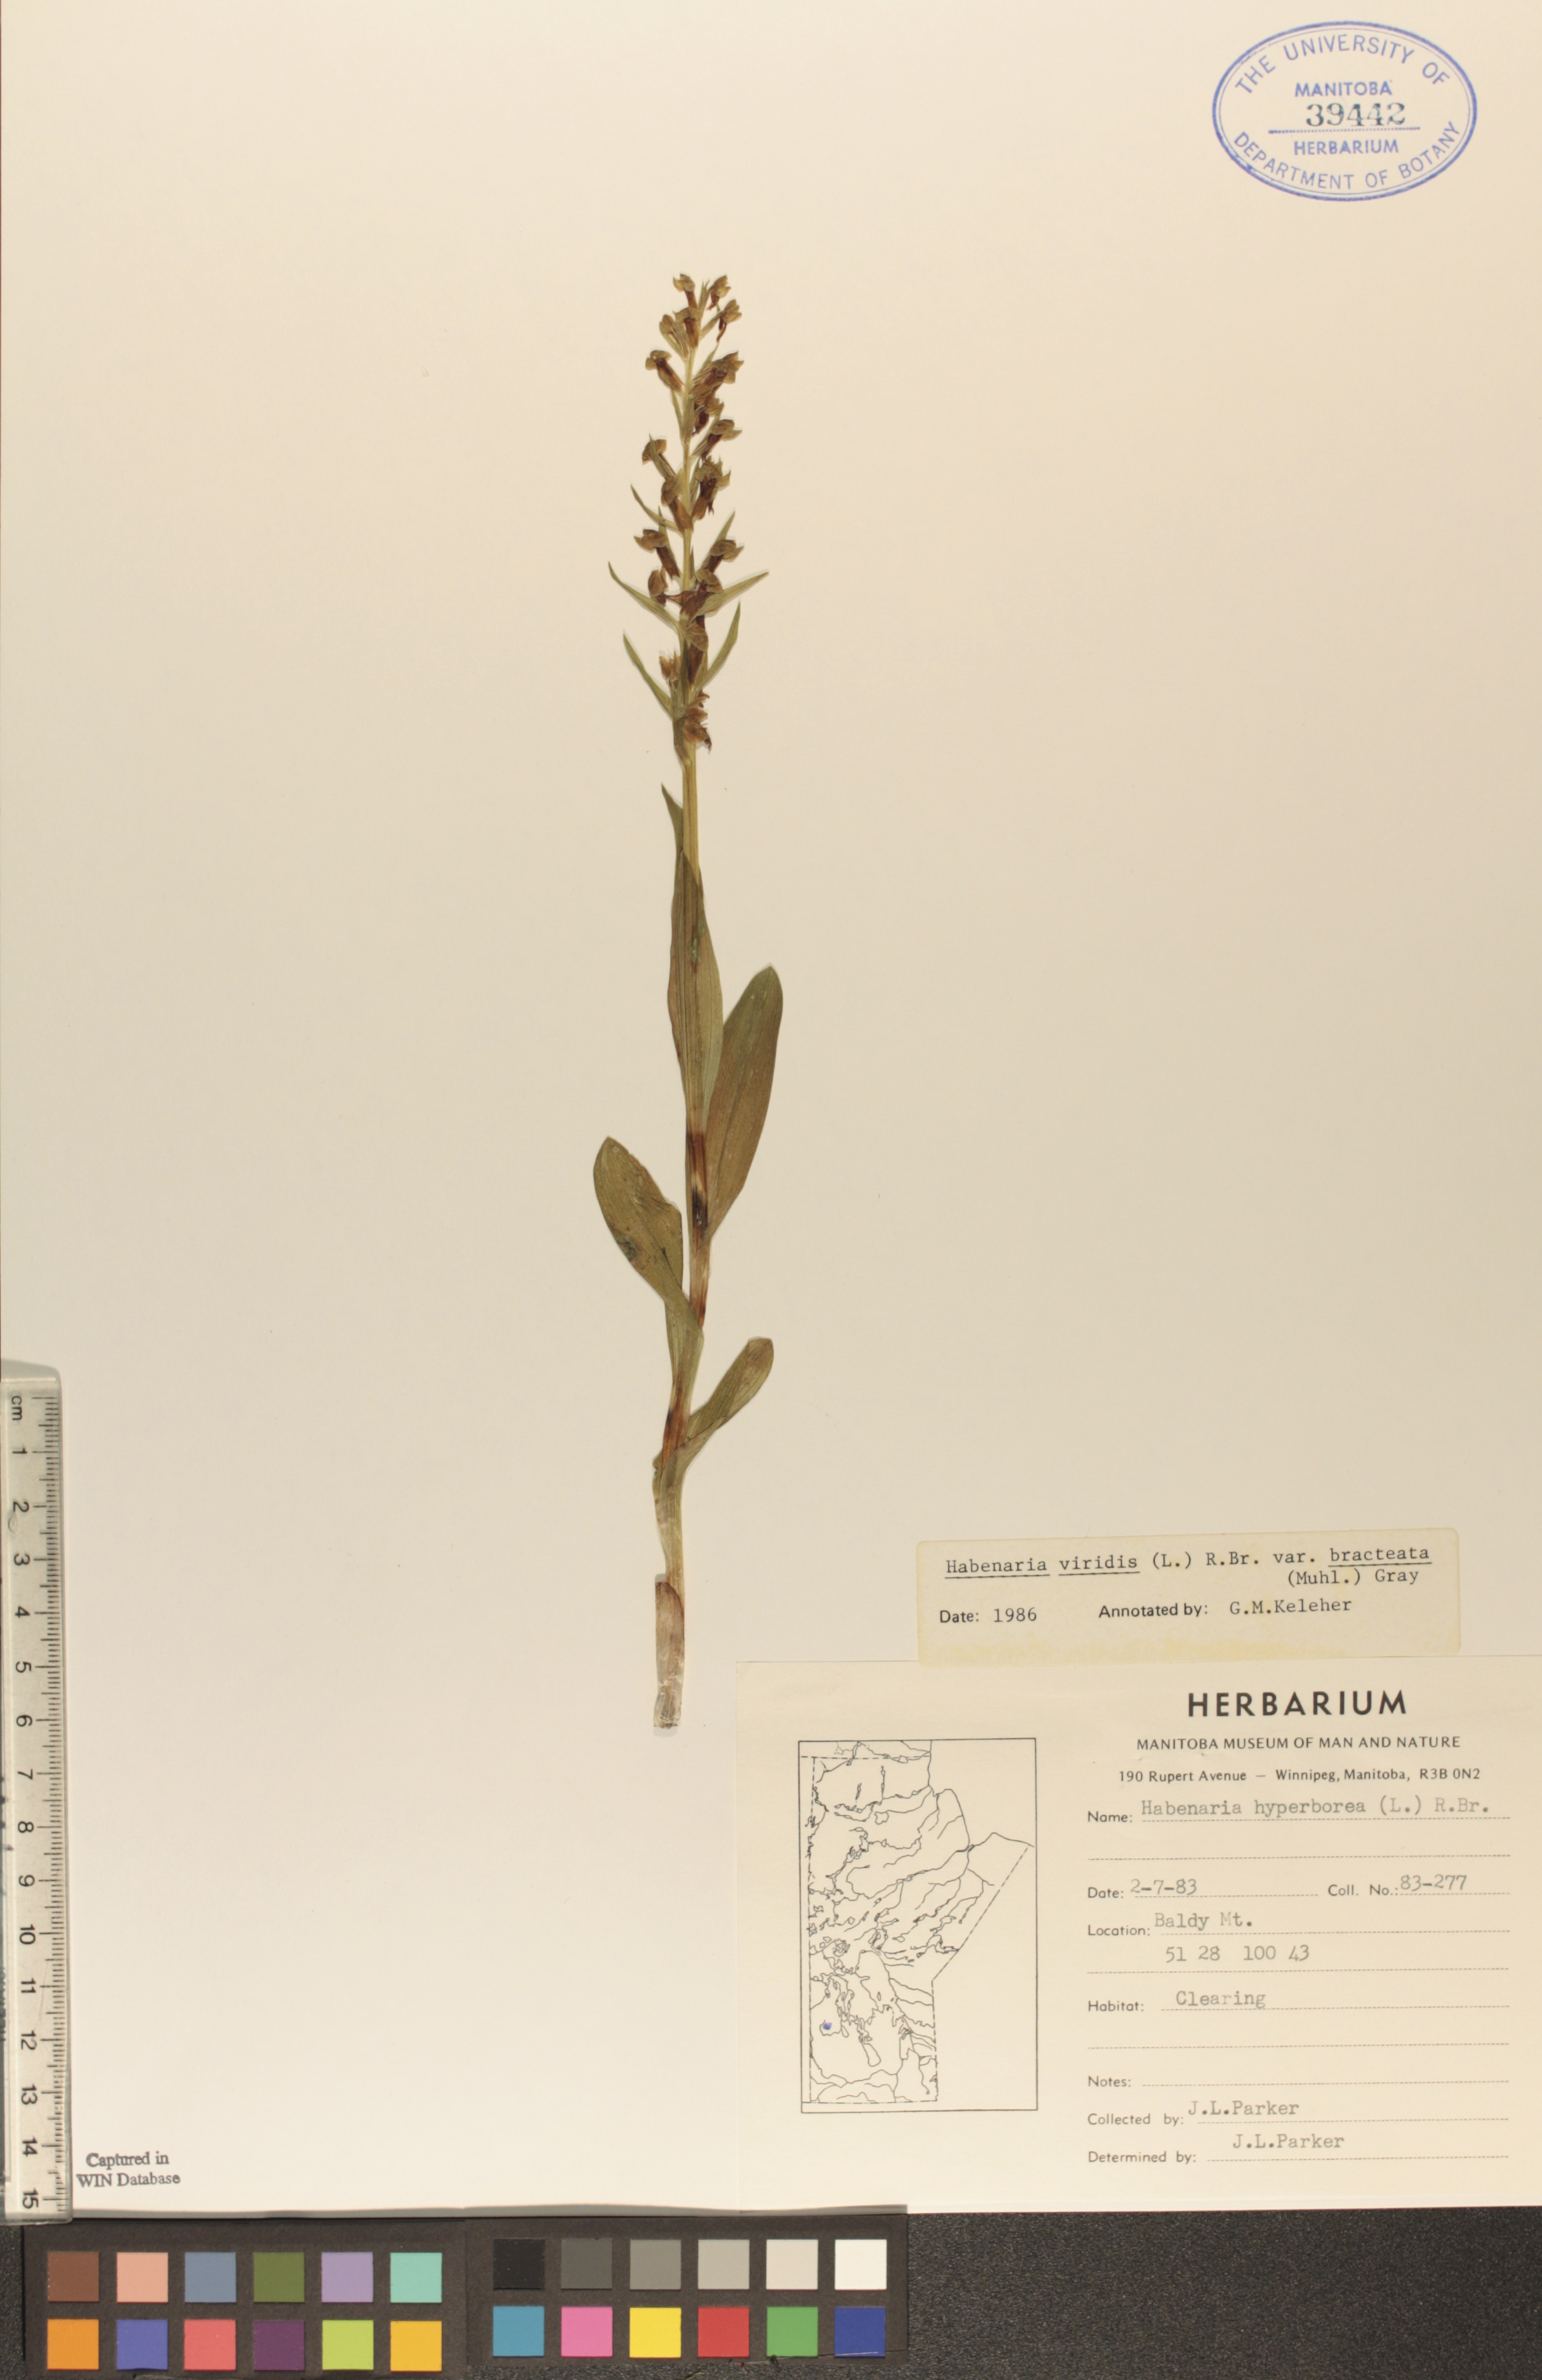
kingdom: Plantae
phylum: Tracheophyta
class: Liliopsida
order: Asparagales
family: Orchidaceae
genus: Dactylorhiza
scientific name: Dactylorhiza viridis
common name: Longbract frog orchid
